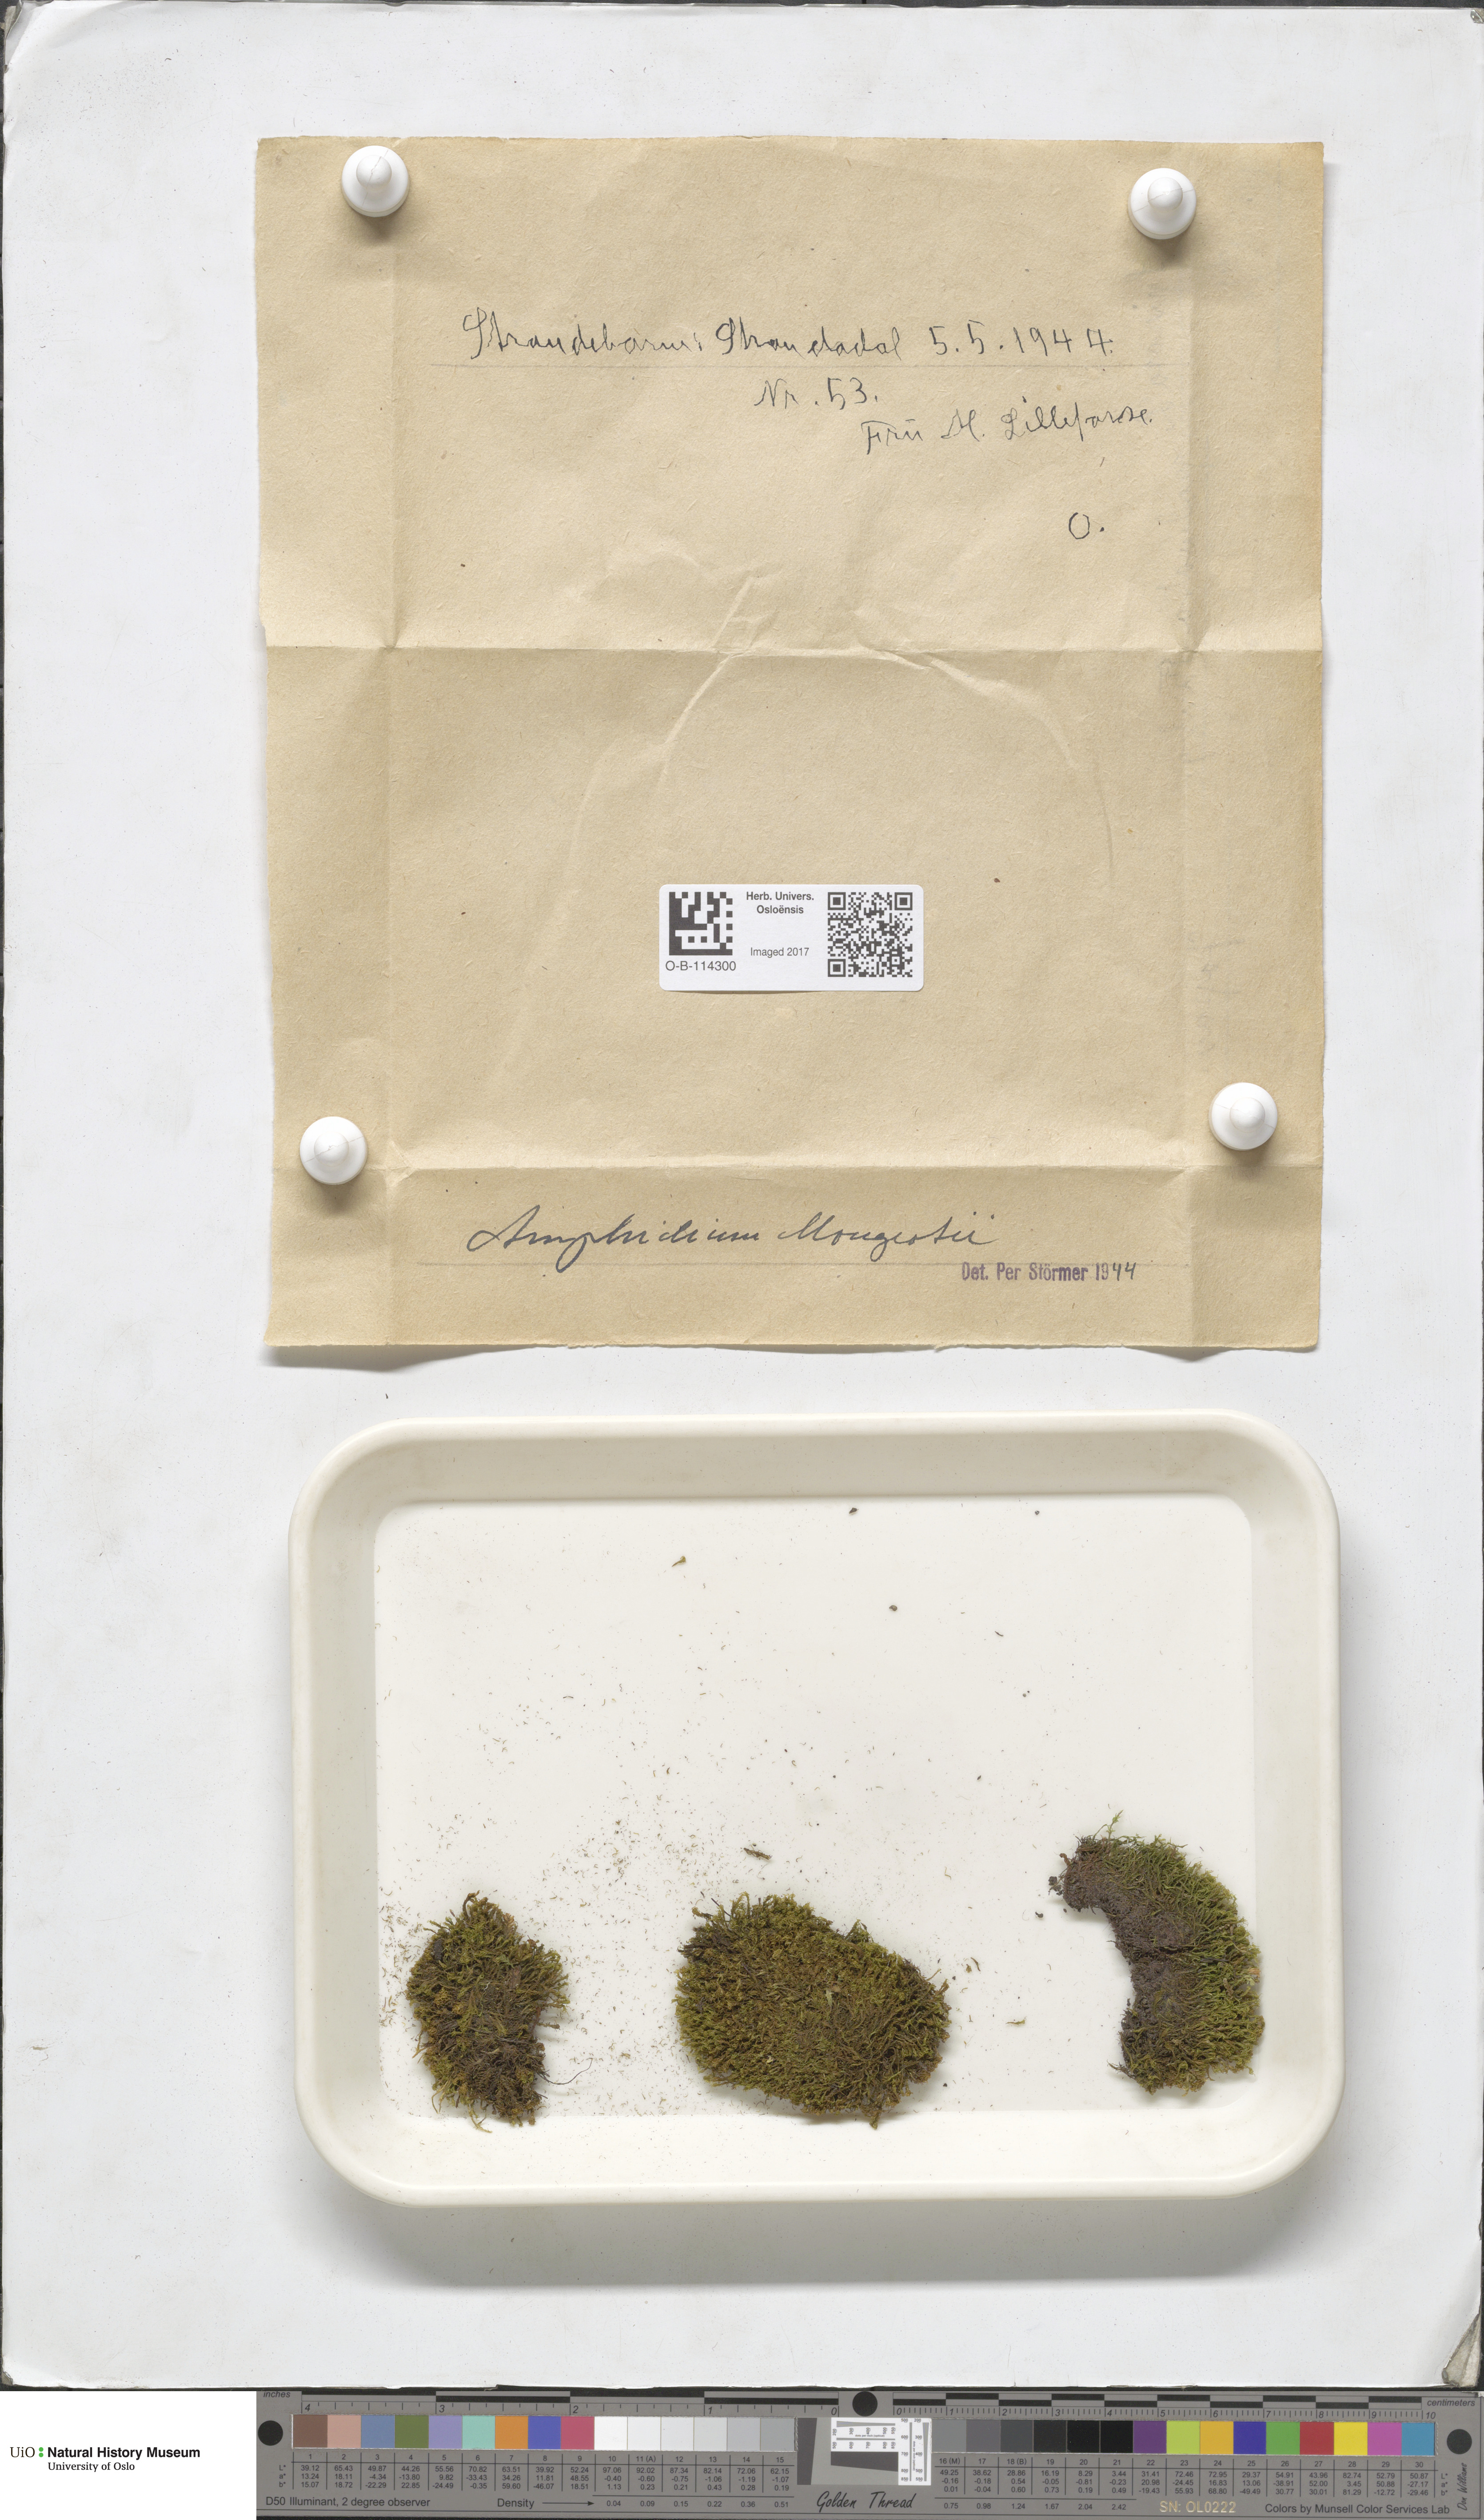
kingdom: Plantae
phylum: Bryophyta
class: Bryopsida
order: Dicranales
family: Amphidiaceae
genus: Amphidium
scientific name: Amphidium mougeotii
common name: Mougeot's yoke moss
